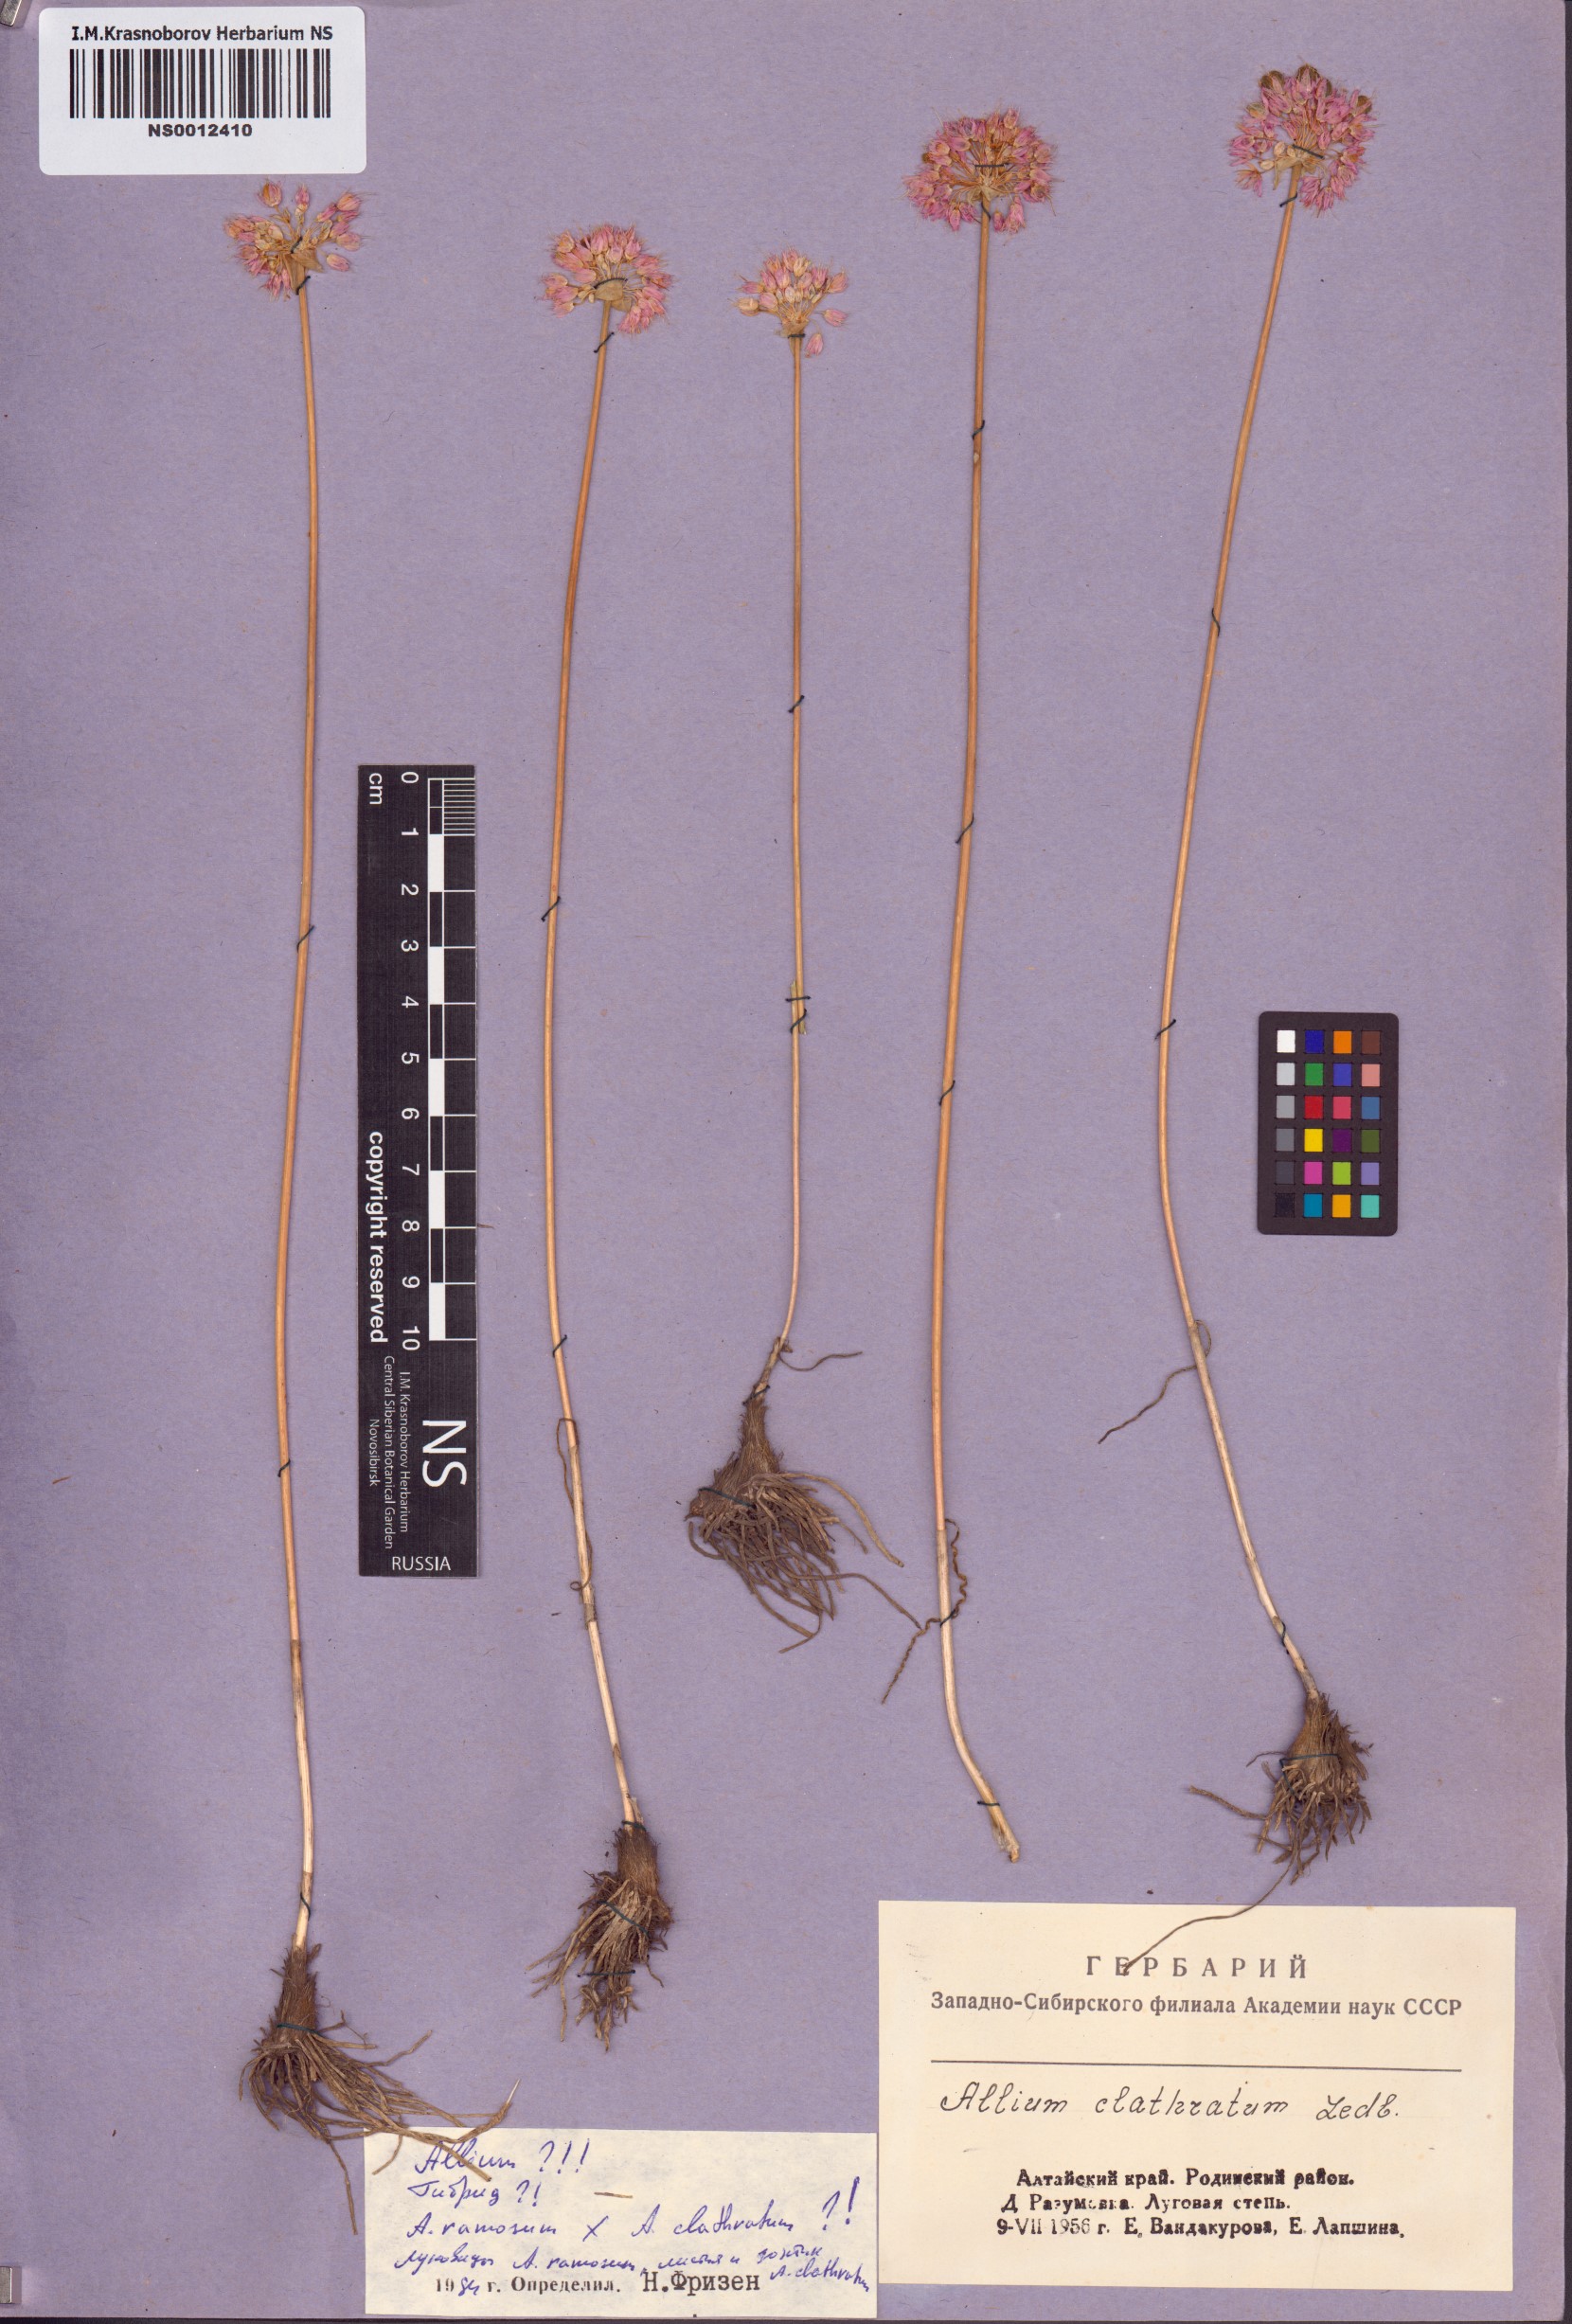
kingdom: Plantae
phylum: Tracheophyta
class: Liliopsida
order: Asparagales
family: Amaryllidaceae
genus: Allium
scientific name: Allium clathratum
